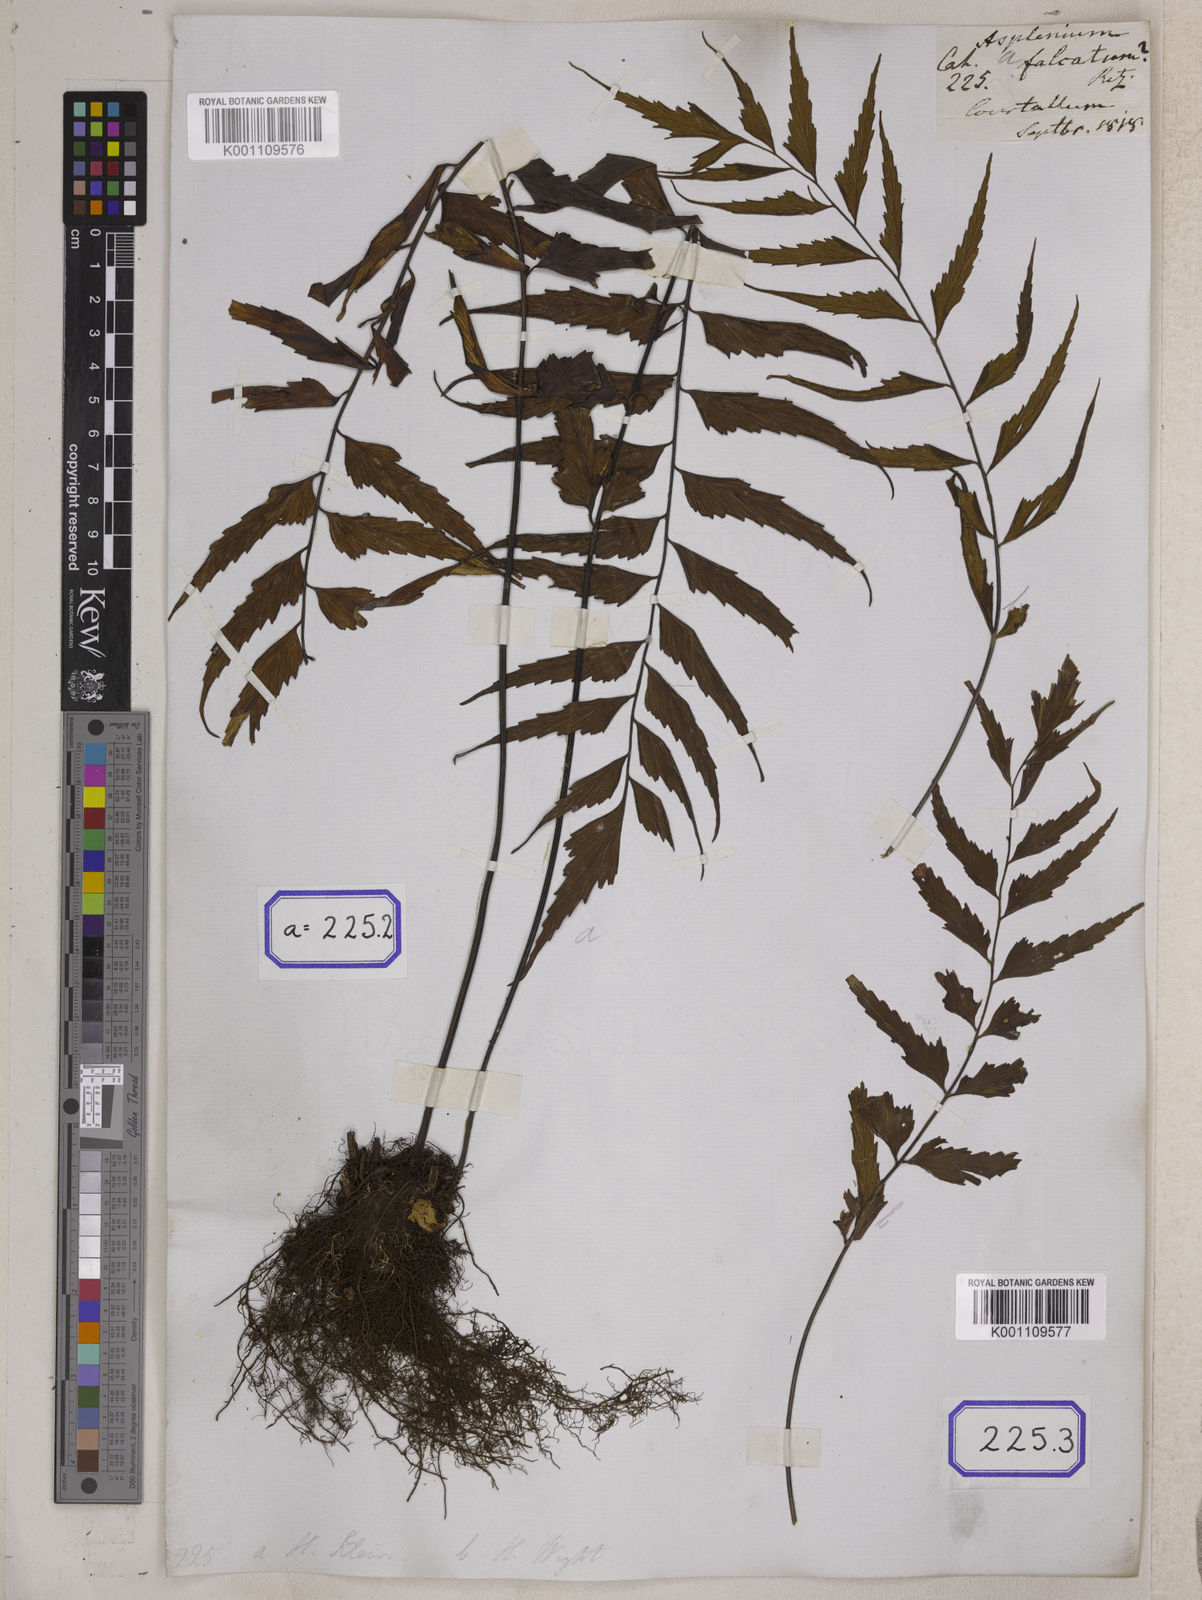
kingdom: Plantae
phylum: Tracheophyta
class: Polypodiopsida
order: Polypodiales
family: Aspleniaceae
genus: Asplenium
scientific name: Asplenium falcatum
